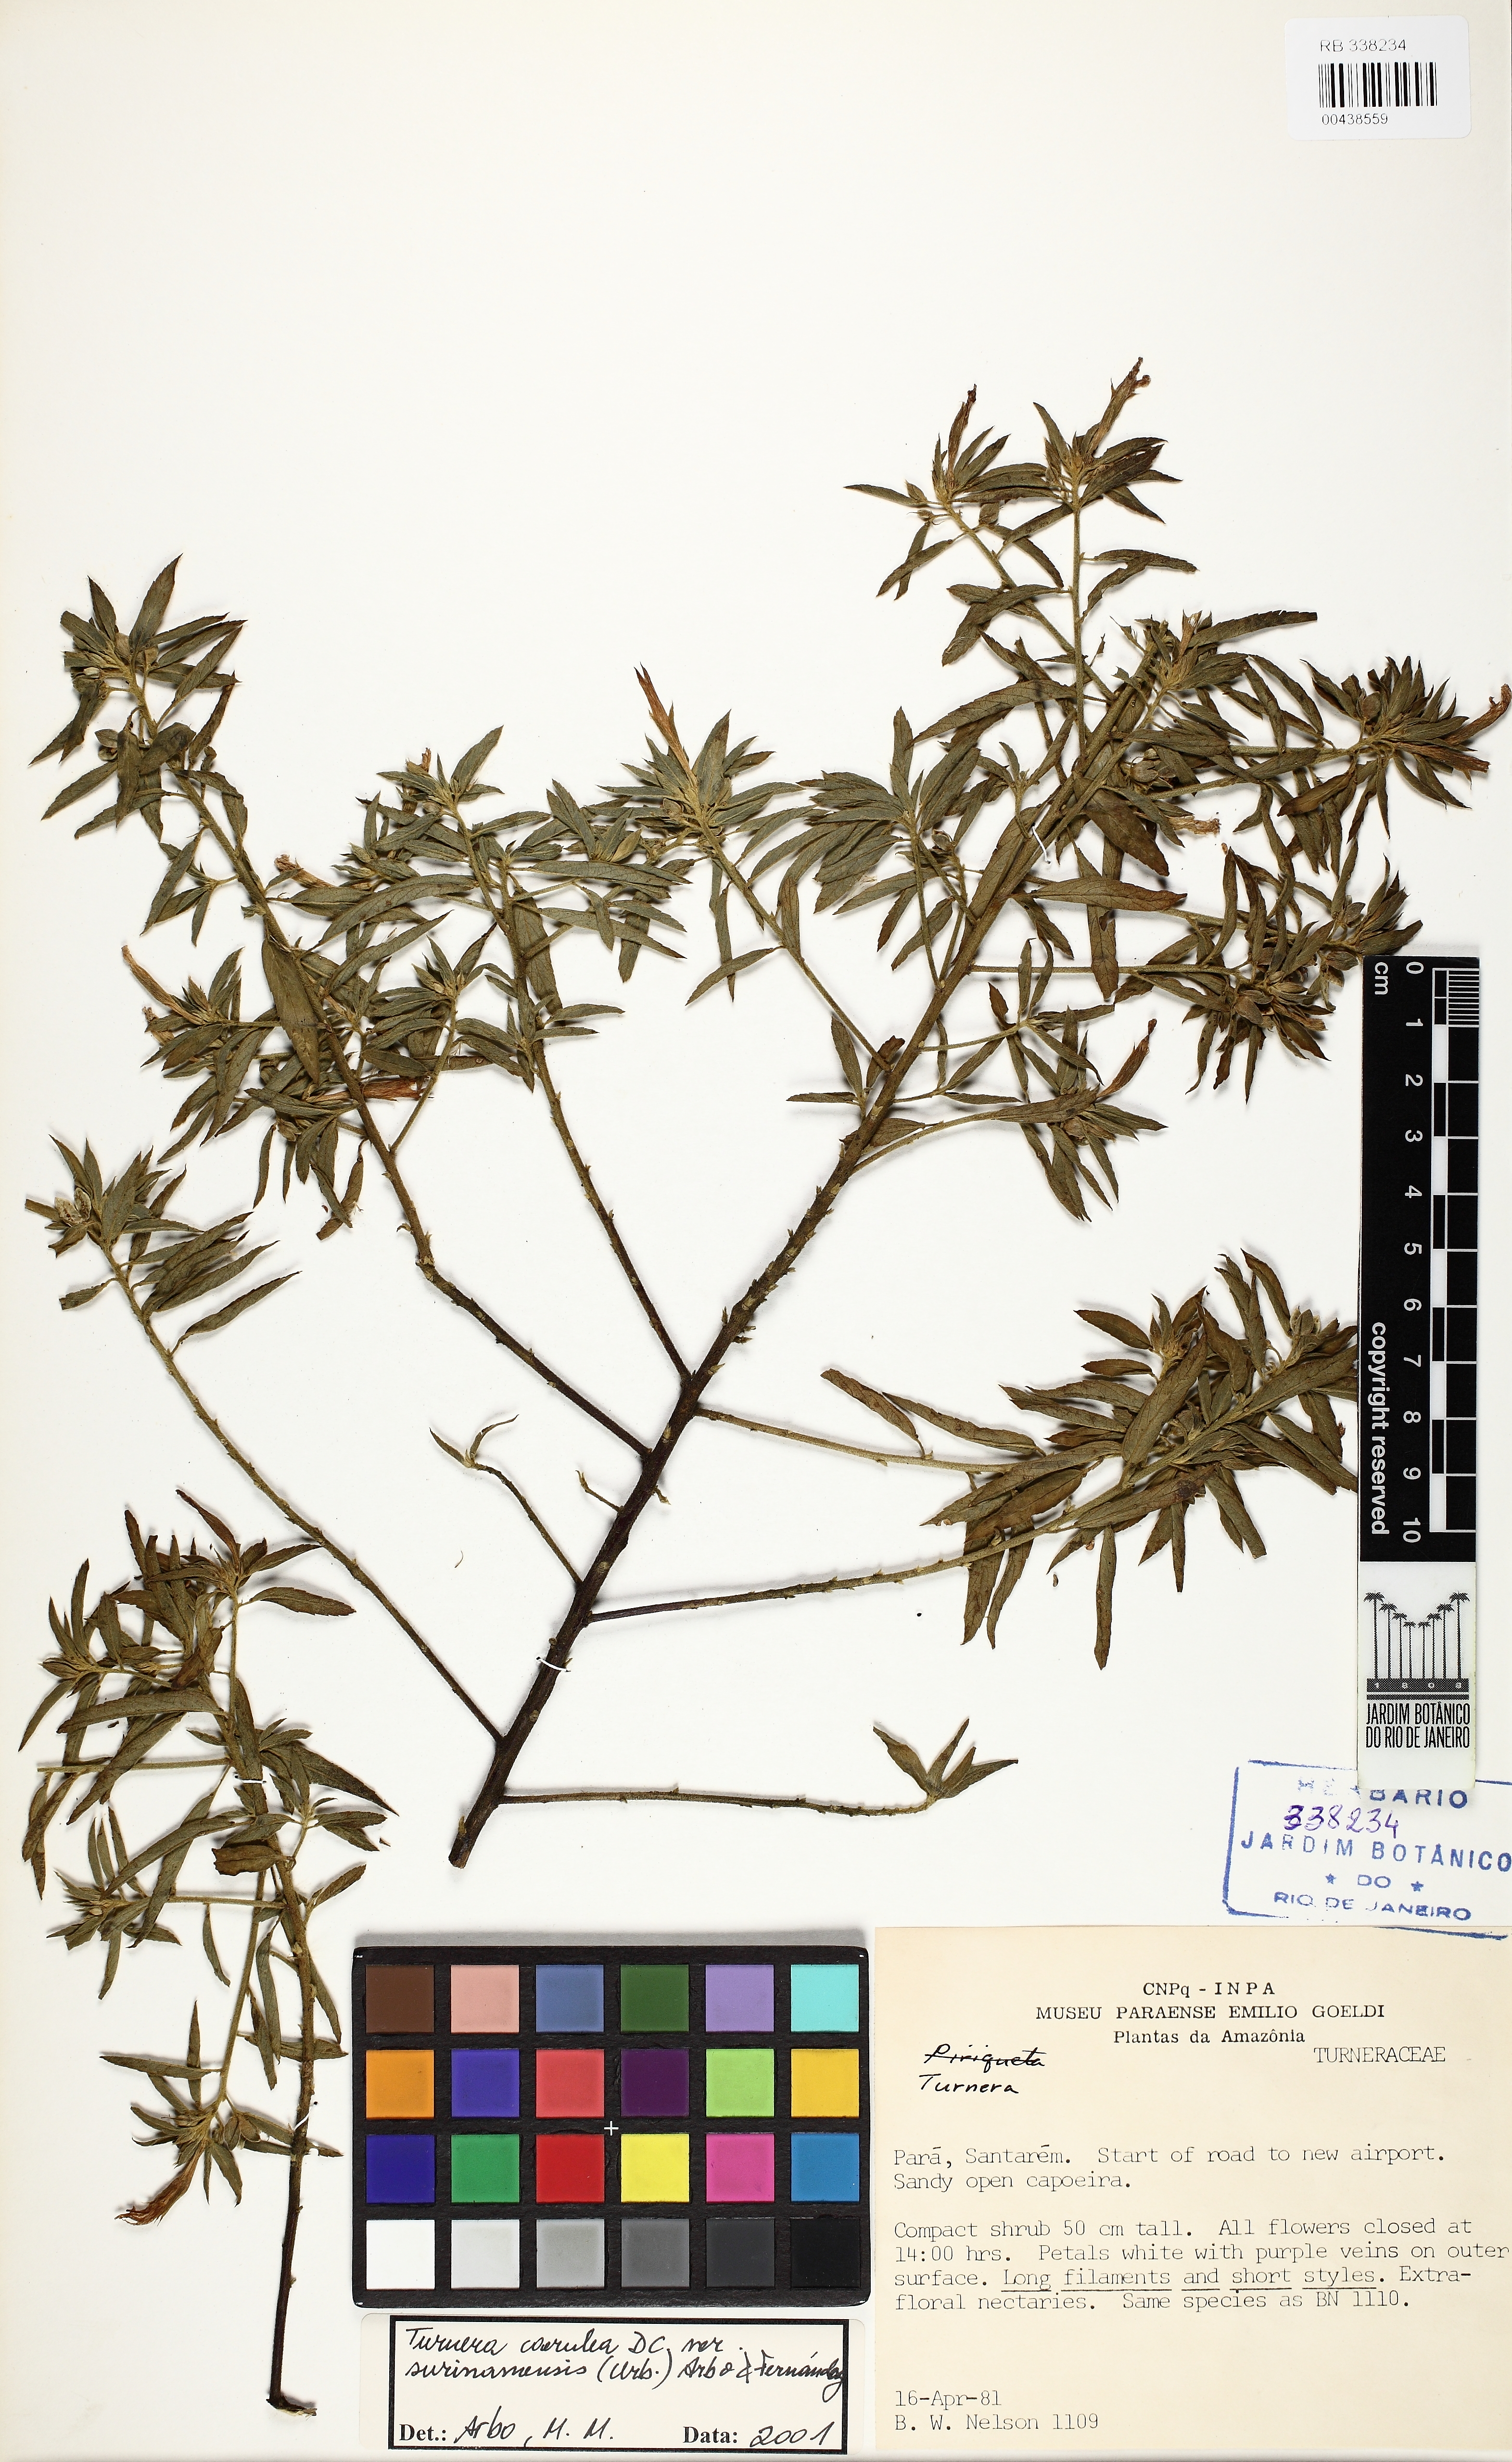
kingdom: Plantae
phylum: Tracheophyta
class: Magnoliopsida
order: Malpighiales
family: Turneraceae
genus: Turnera
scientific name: Turnera caerulea
